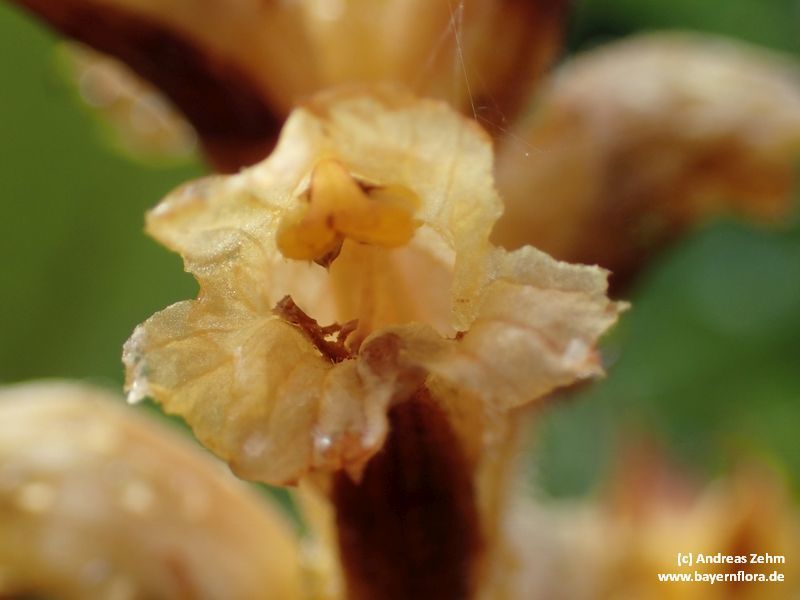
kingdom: Plantae
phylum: Tracheophyta
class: Magnoliopsida
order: Lamiales
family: Orobanchaceae
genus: Orobanche
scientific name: Orobanche flava
